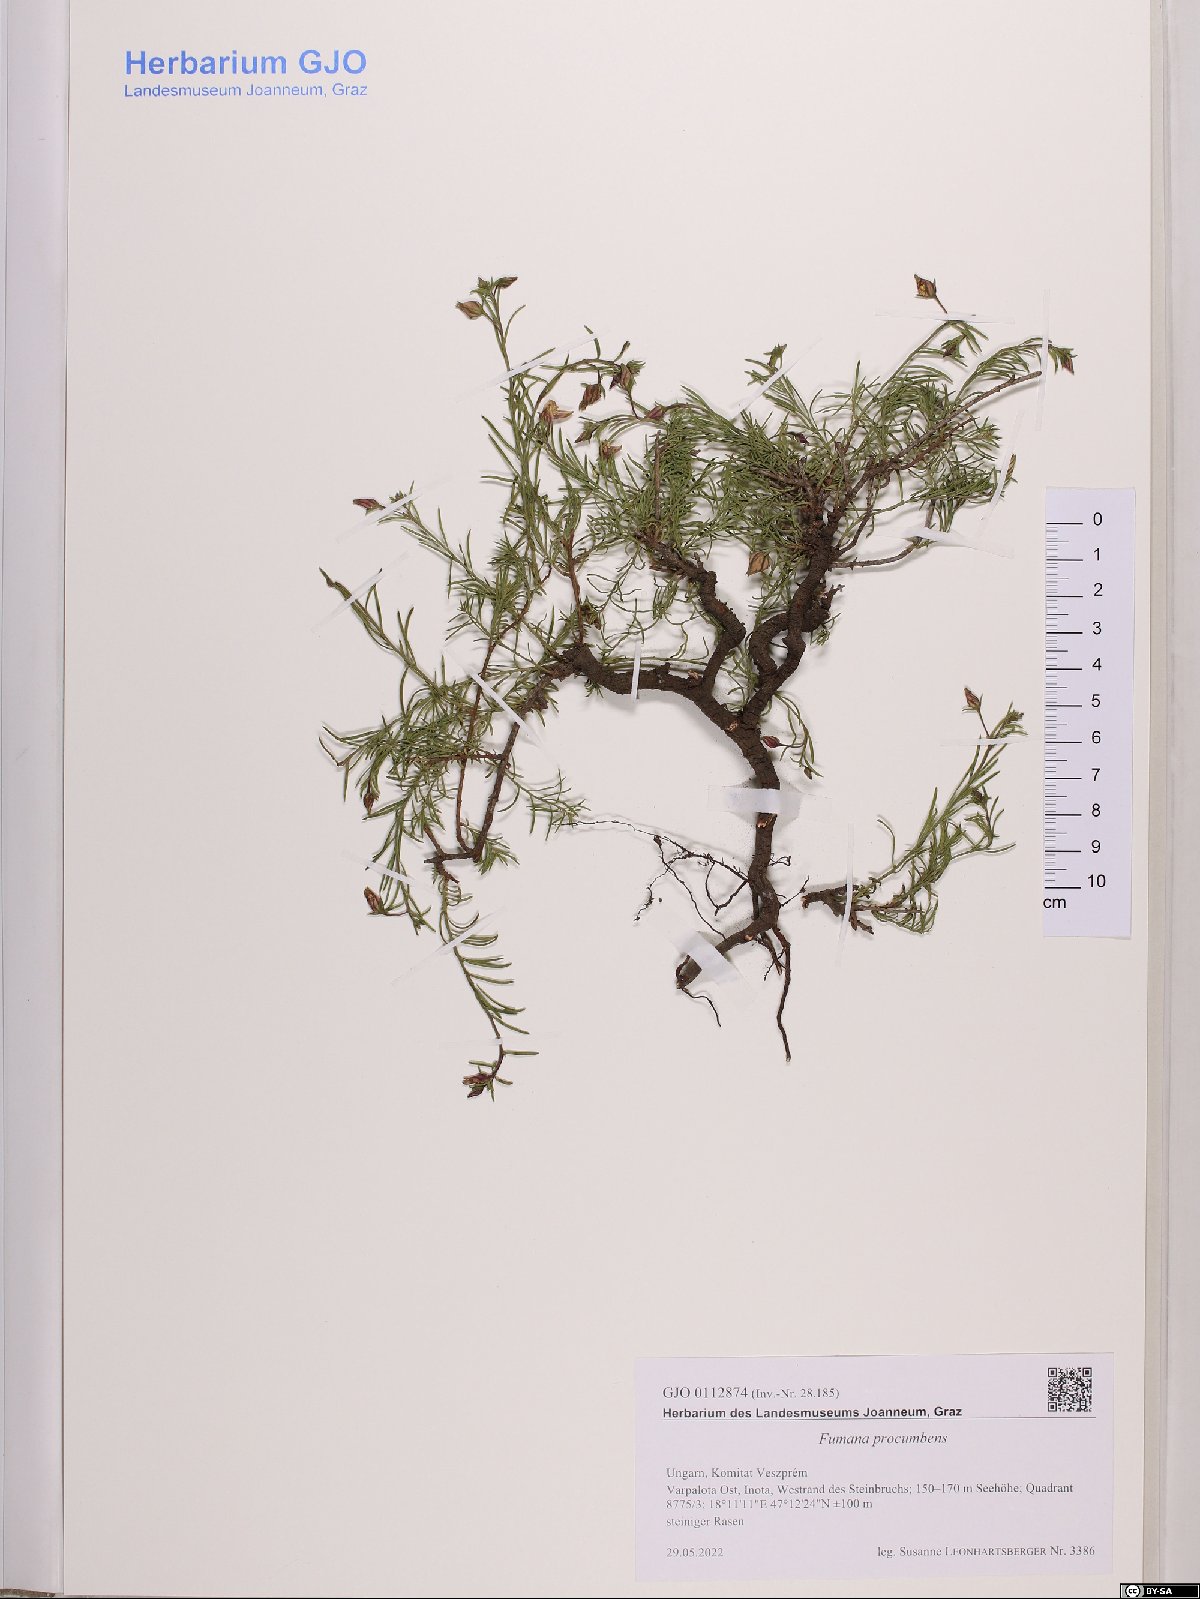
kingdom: Plantae
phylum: Tracheophyta
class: Magnoliopsida
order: Malvales
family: Cistaceae
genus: Fumana
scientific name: Fumana procumbens
